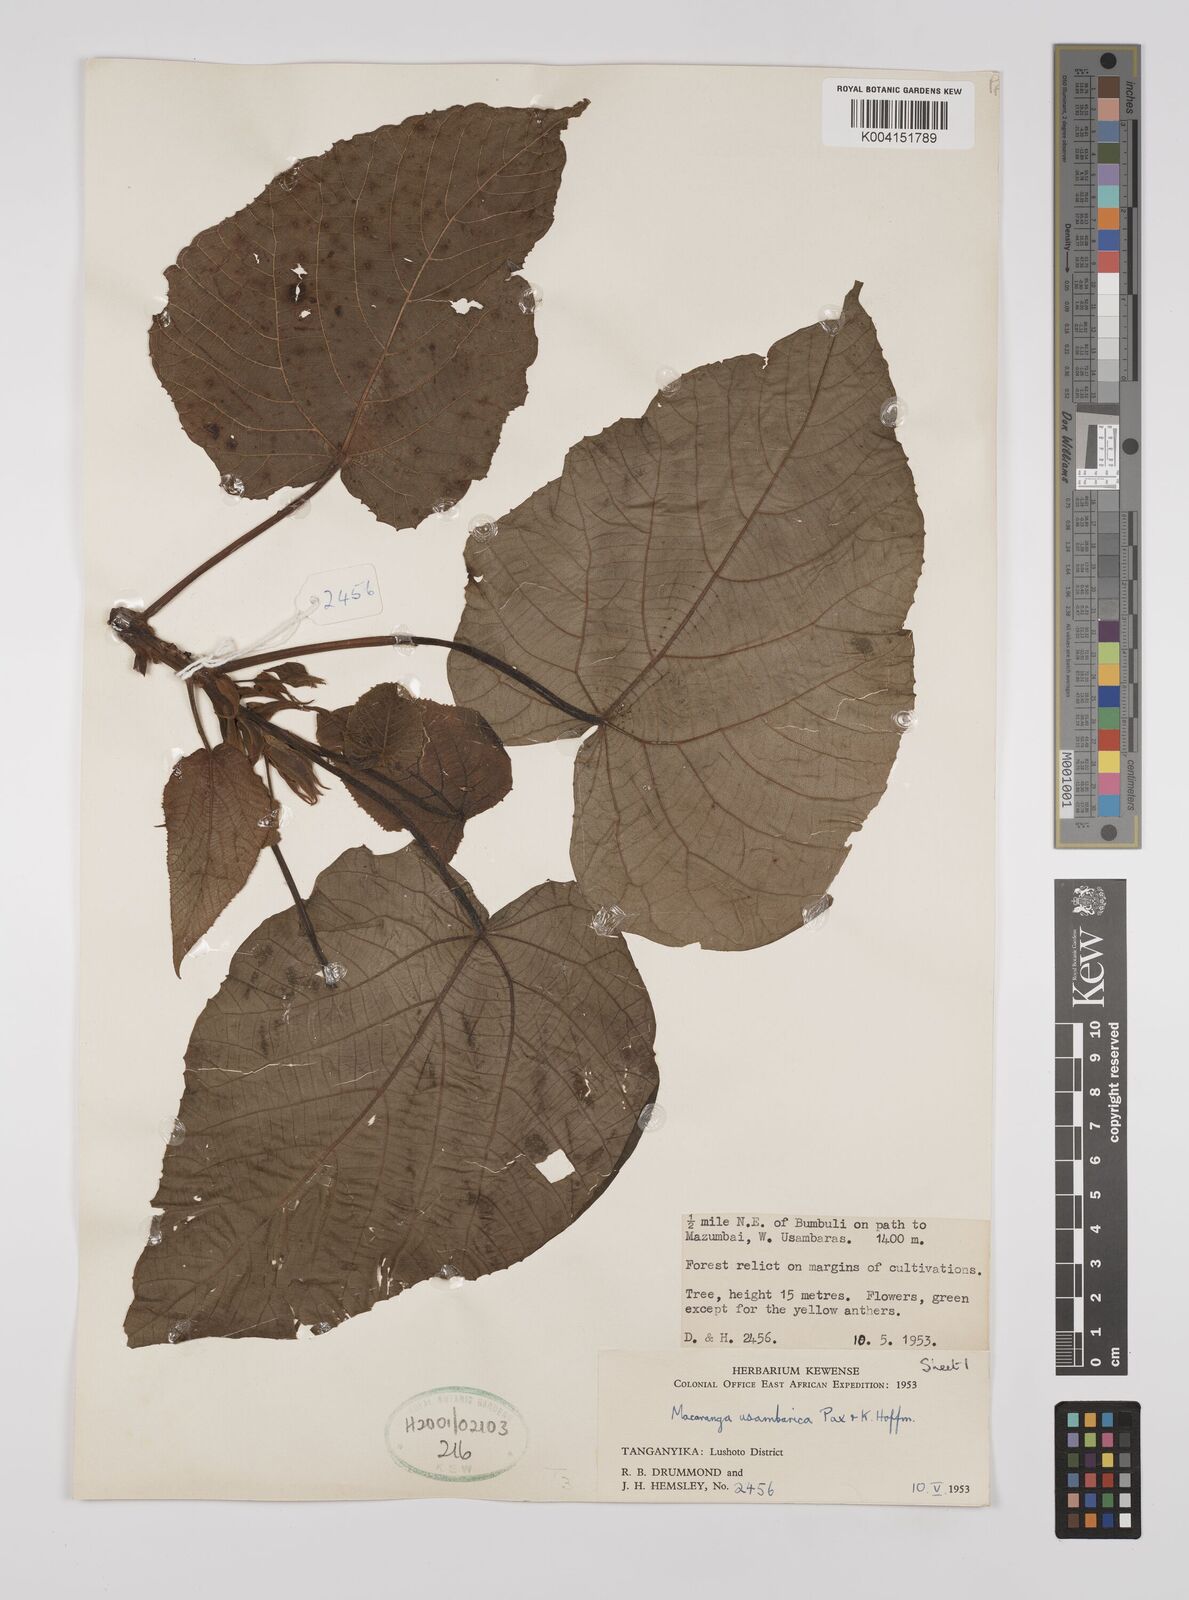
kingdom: Plantae
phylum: Tracheophyta
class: Magnoliopsida
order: Malpighiales
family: Euphorbiaceae
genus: Macaranga
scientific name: Macaranga capensis
